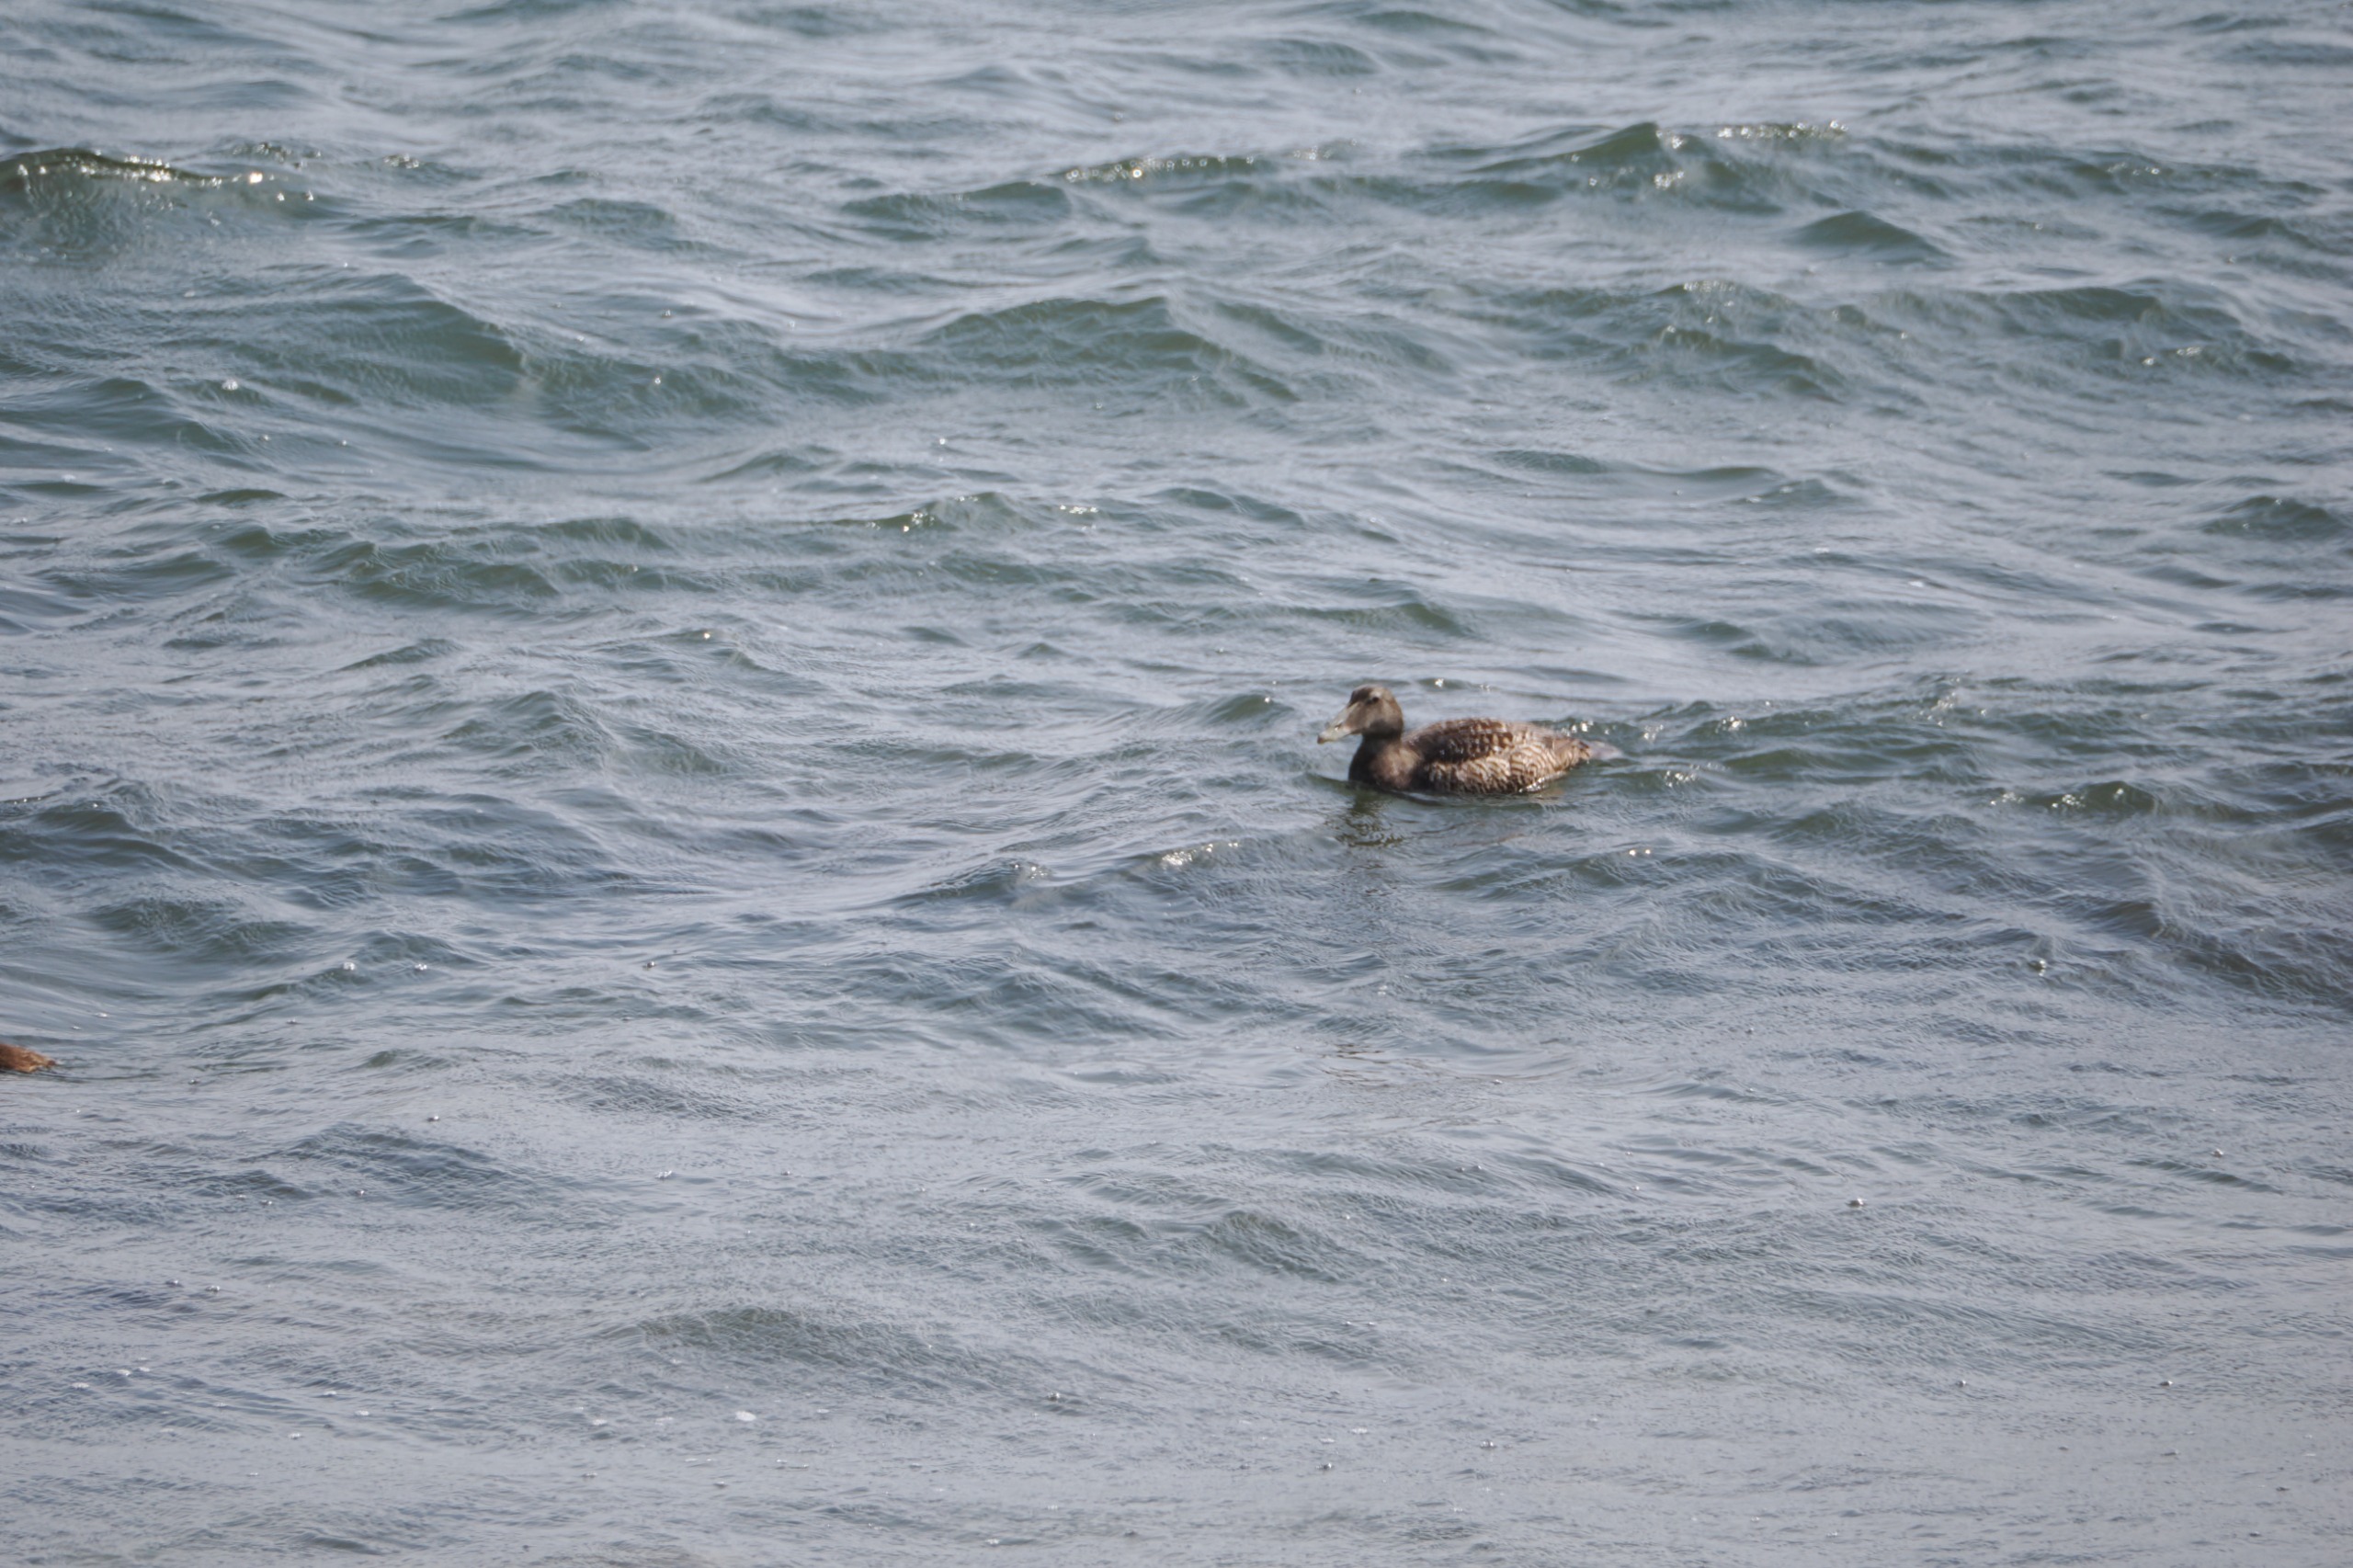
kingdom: Animalia
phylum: Chordata
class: Aves
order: Anseriformes
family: Anatidae
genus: Somateria
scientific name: Somateria mollissima
